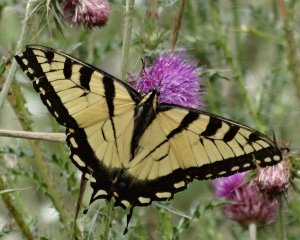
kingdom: Animalia
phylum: Arthropoda
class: Insecta
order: Lepidoptera
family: Papilionidae
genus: Pterourus
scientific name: Pterourus glaucus
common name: Eastern Tiger Swallowtail
